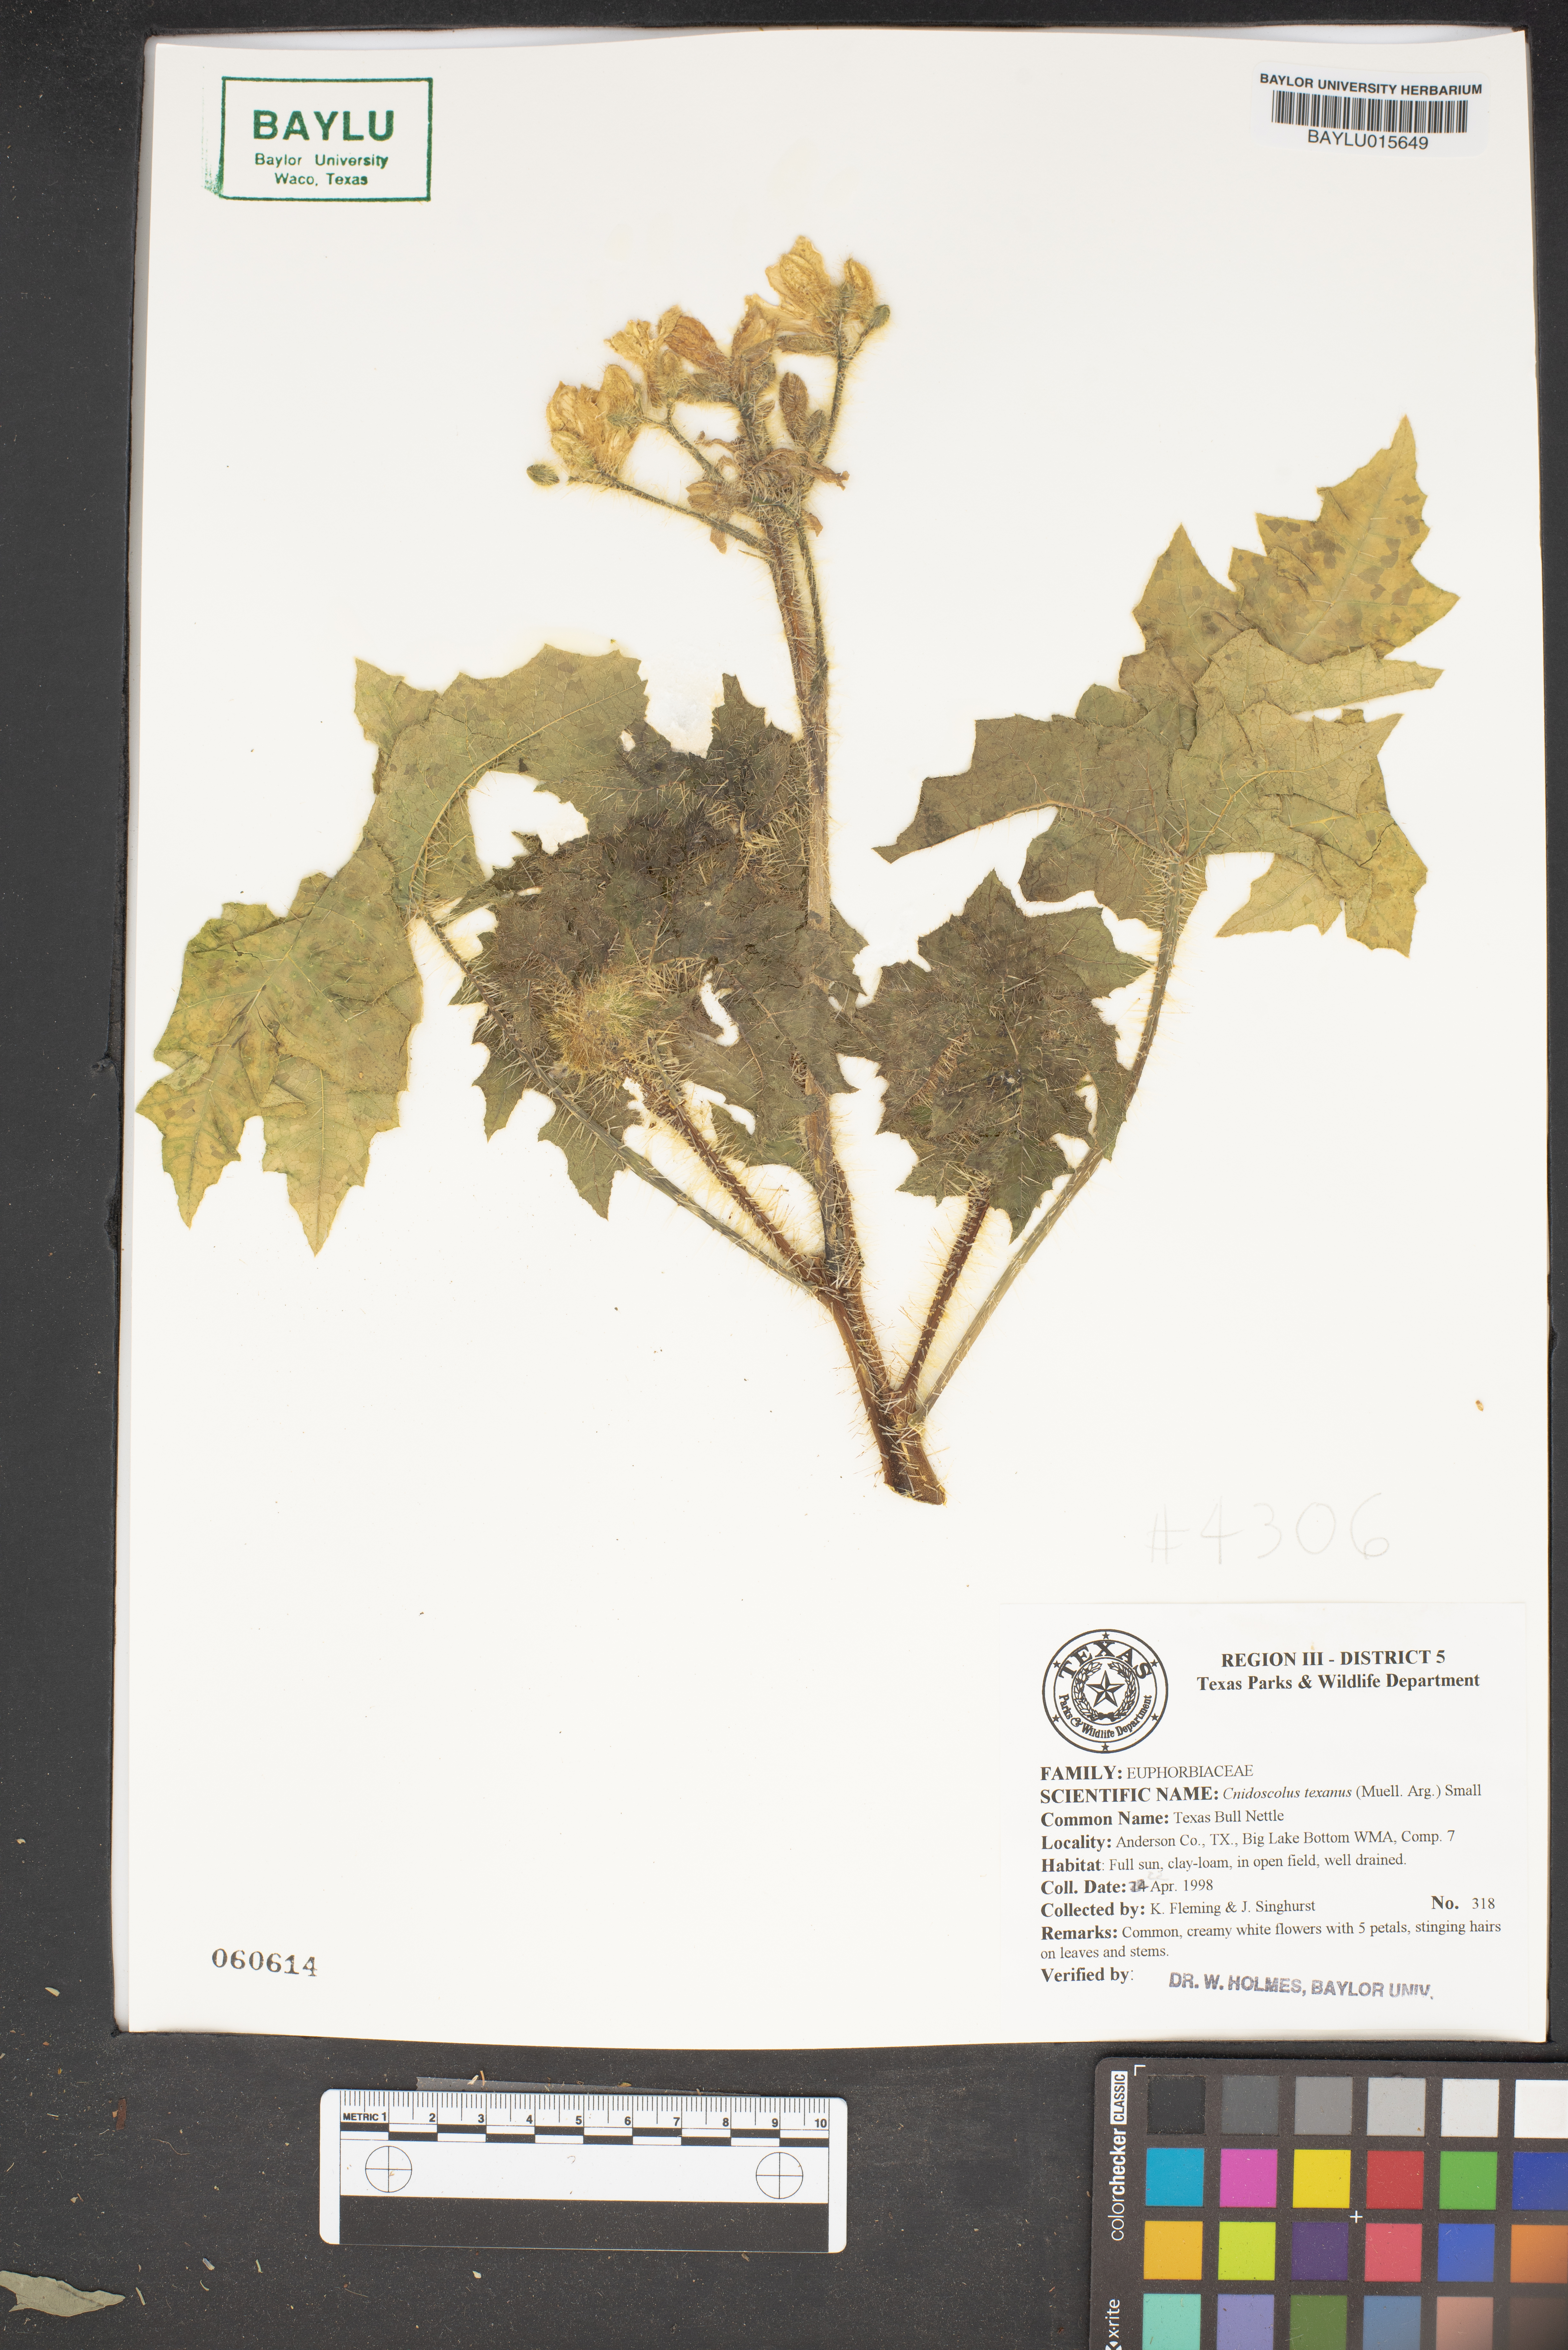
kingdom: Plantae
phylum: Tracheophyta
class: Magnoliopsida
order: Malpighiales
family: Euphorbiaceae
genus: Cnidoscolus
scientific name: Cnidoscolus texanus
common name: Texas bull-nettle
